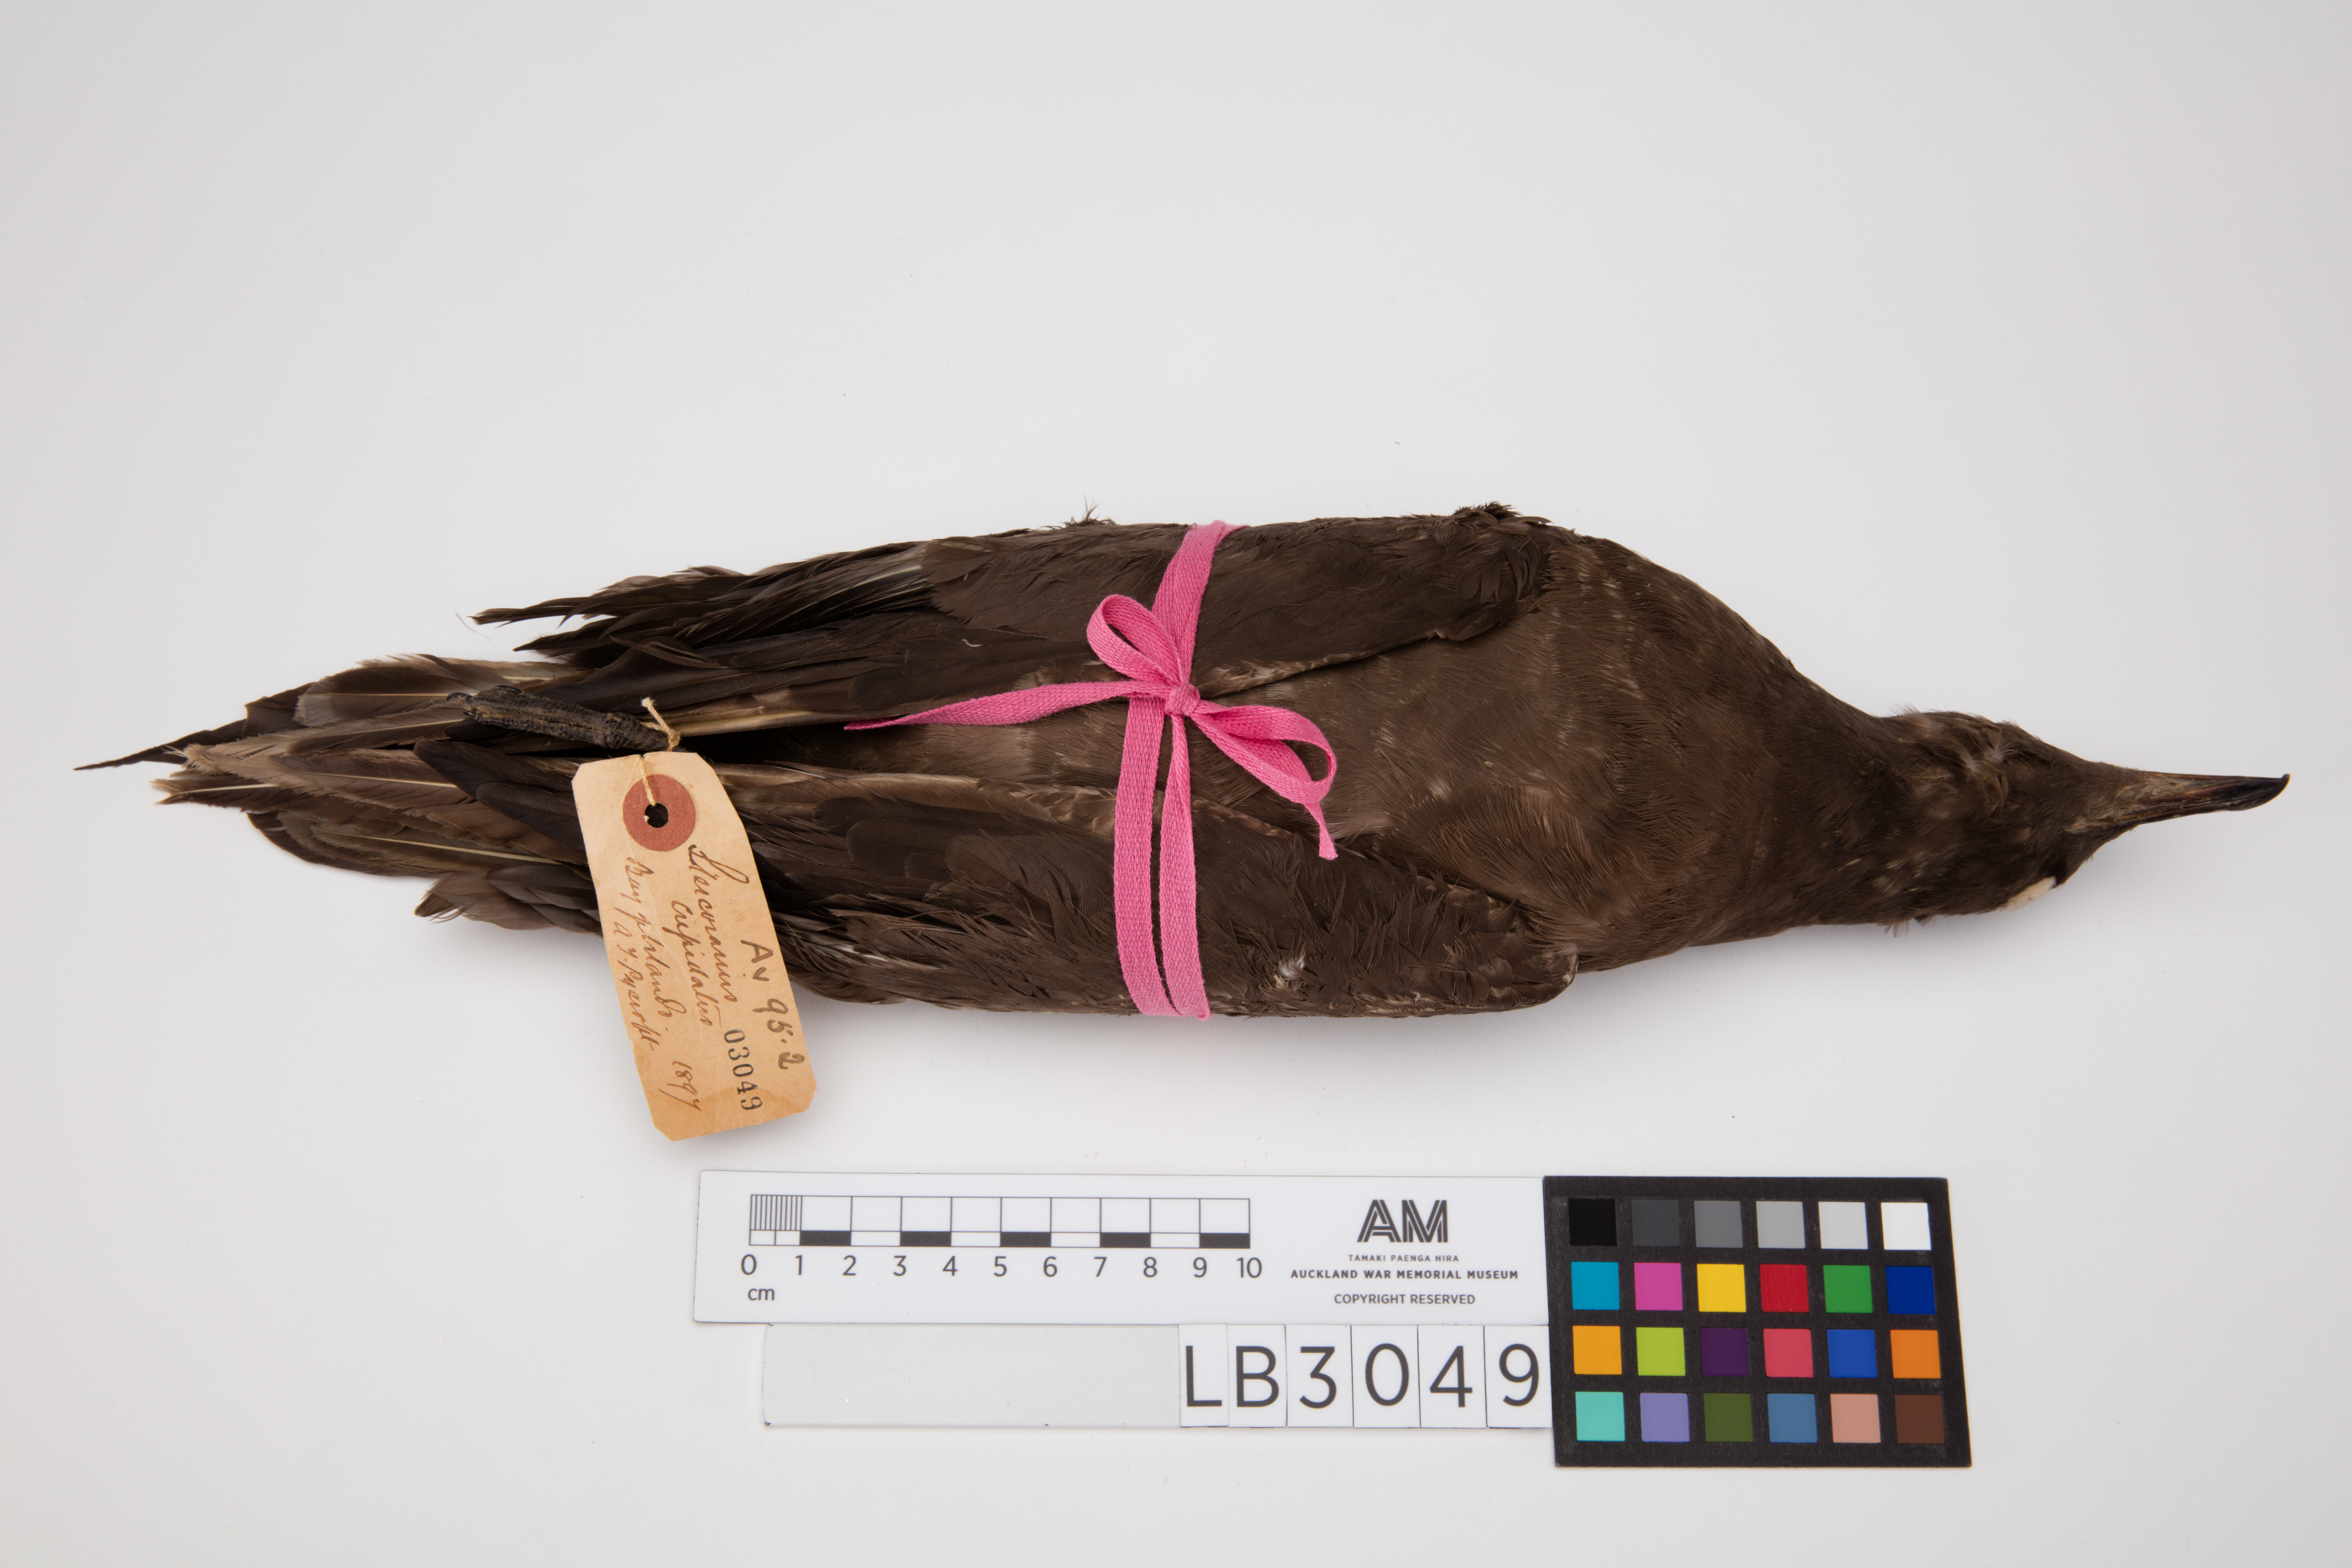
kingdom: Animalia
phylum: Chordata
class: Aves
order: Charadriiformes
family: Stercorariidae
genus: Stercorarius
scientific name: Stercorarius parasiticus
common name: Parasitic jaeger
